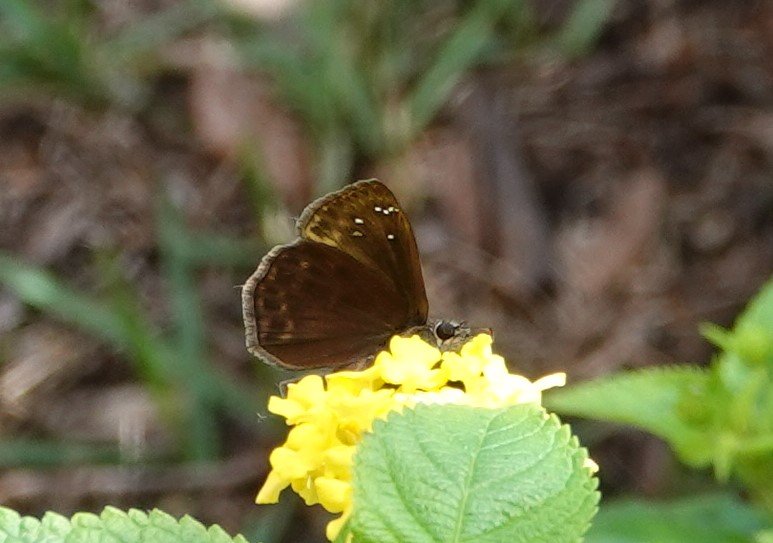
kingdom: Animalia
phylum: Arthropoda
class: Insecta
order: Lepidoptera
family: Hesperiidae
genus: Gesta
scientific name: Gesta
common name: Horace's Duskywing
